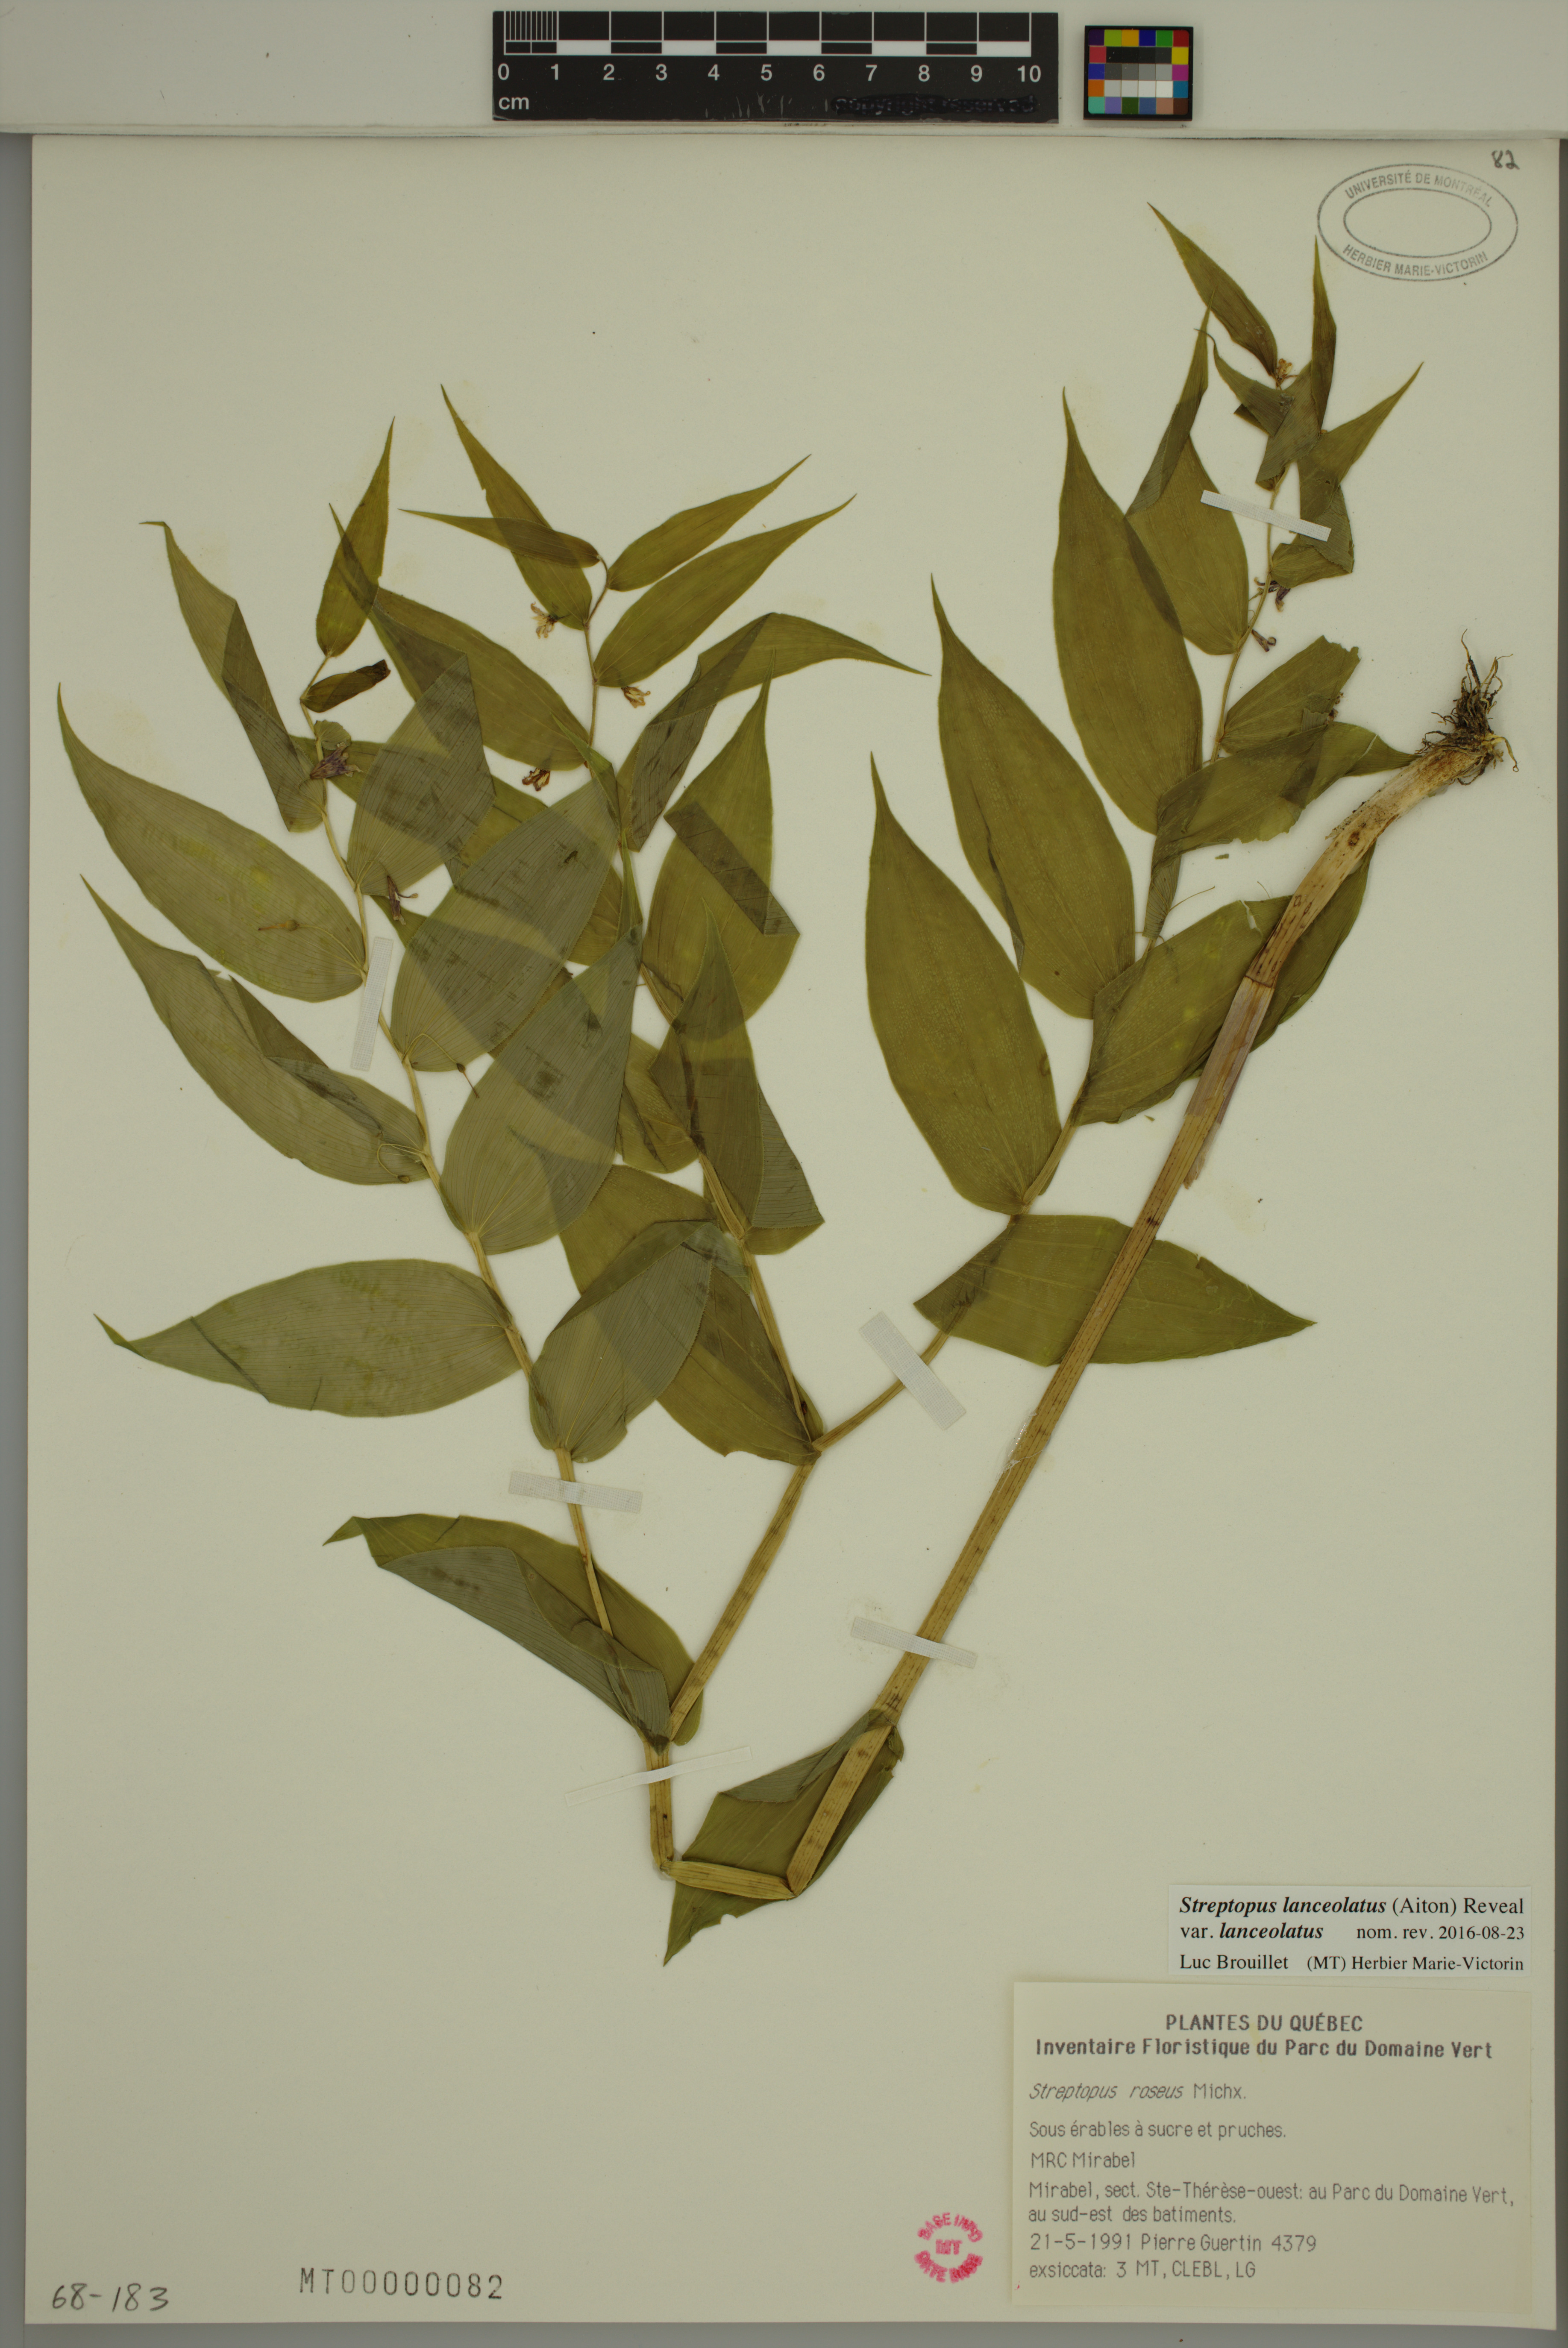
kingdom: Plantae
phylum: Tracheophyta
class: Liliopsida
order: Liliales
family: Liliaceae
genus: Streptopus
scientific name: Streptopus lanceolatus
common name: Rose mandarin
